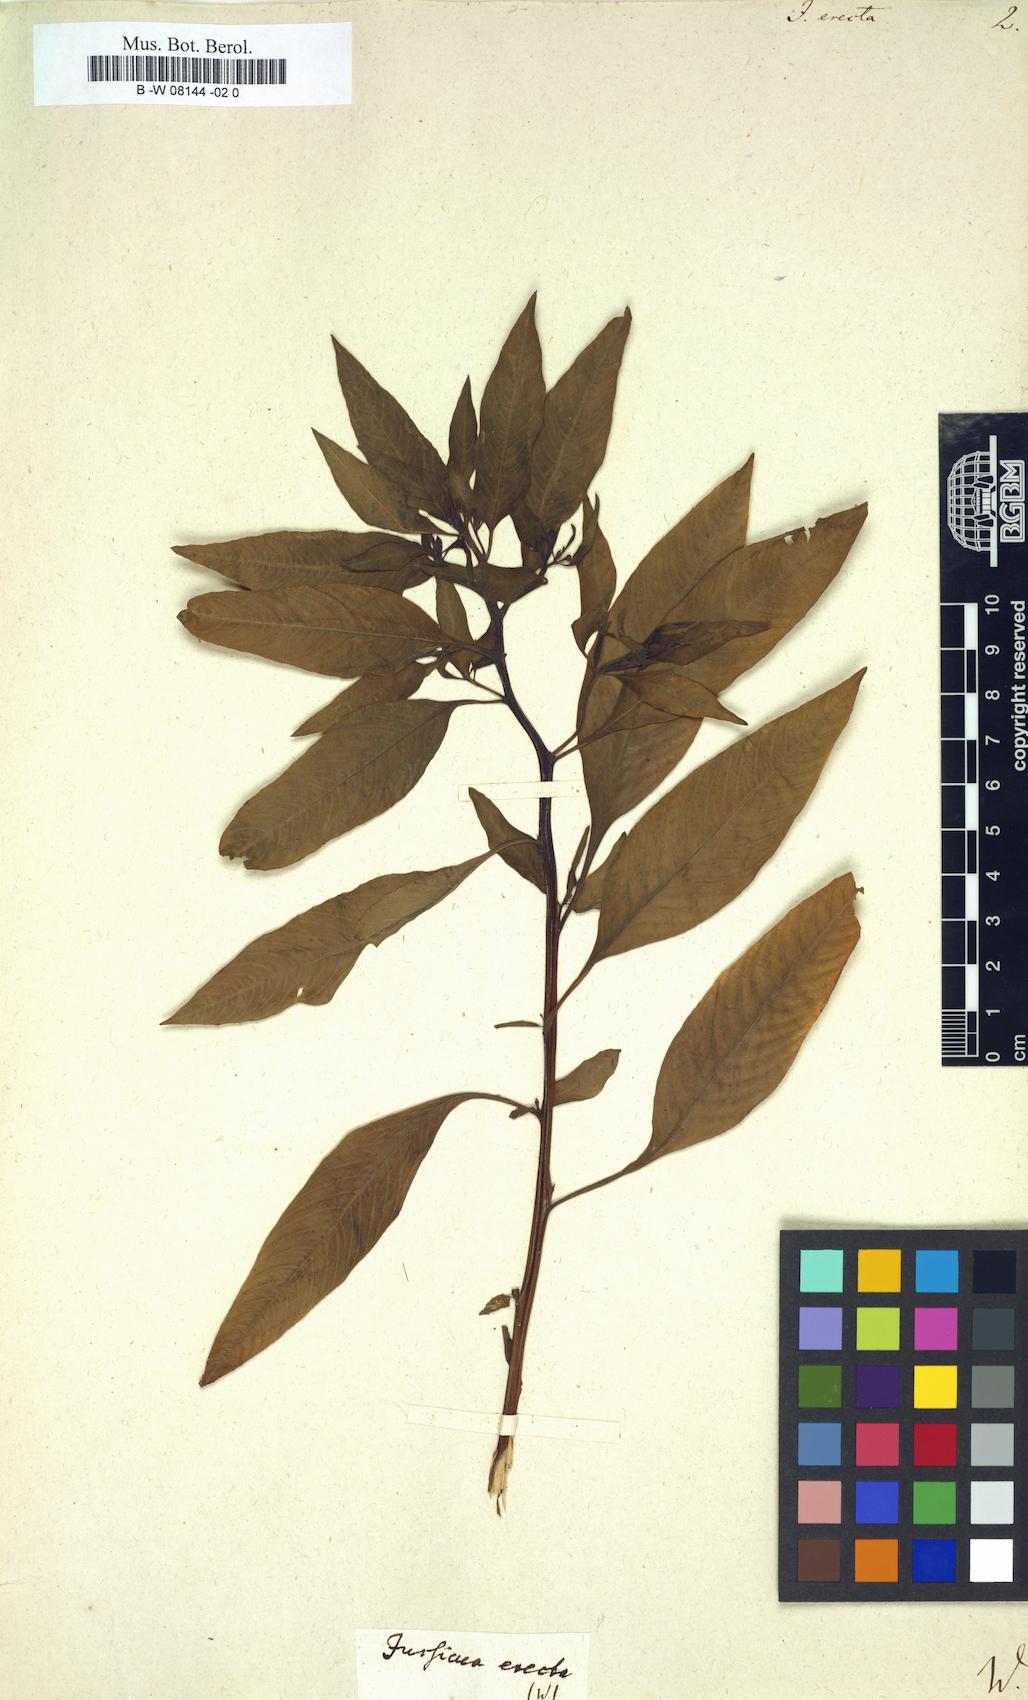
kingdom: Plantae
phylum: Tracheophyta
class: Magnoliopsida
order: Myrtales
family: Onagraceae
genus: Ludwigia
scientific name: Ludwigia
